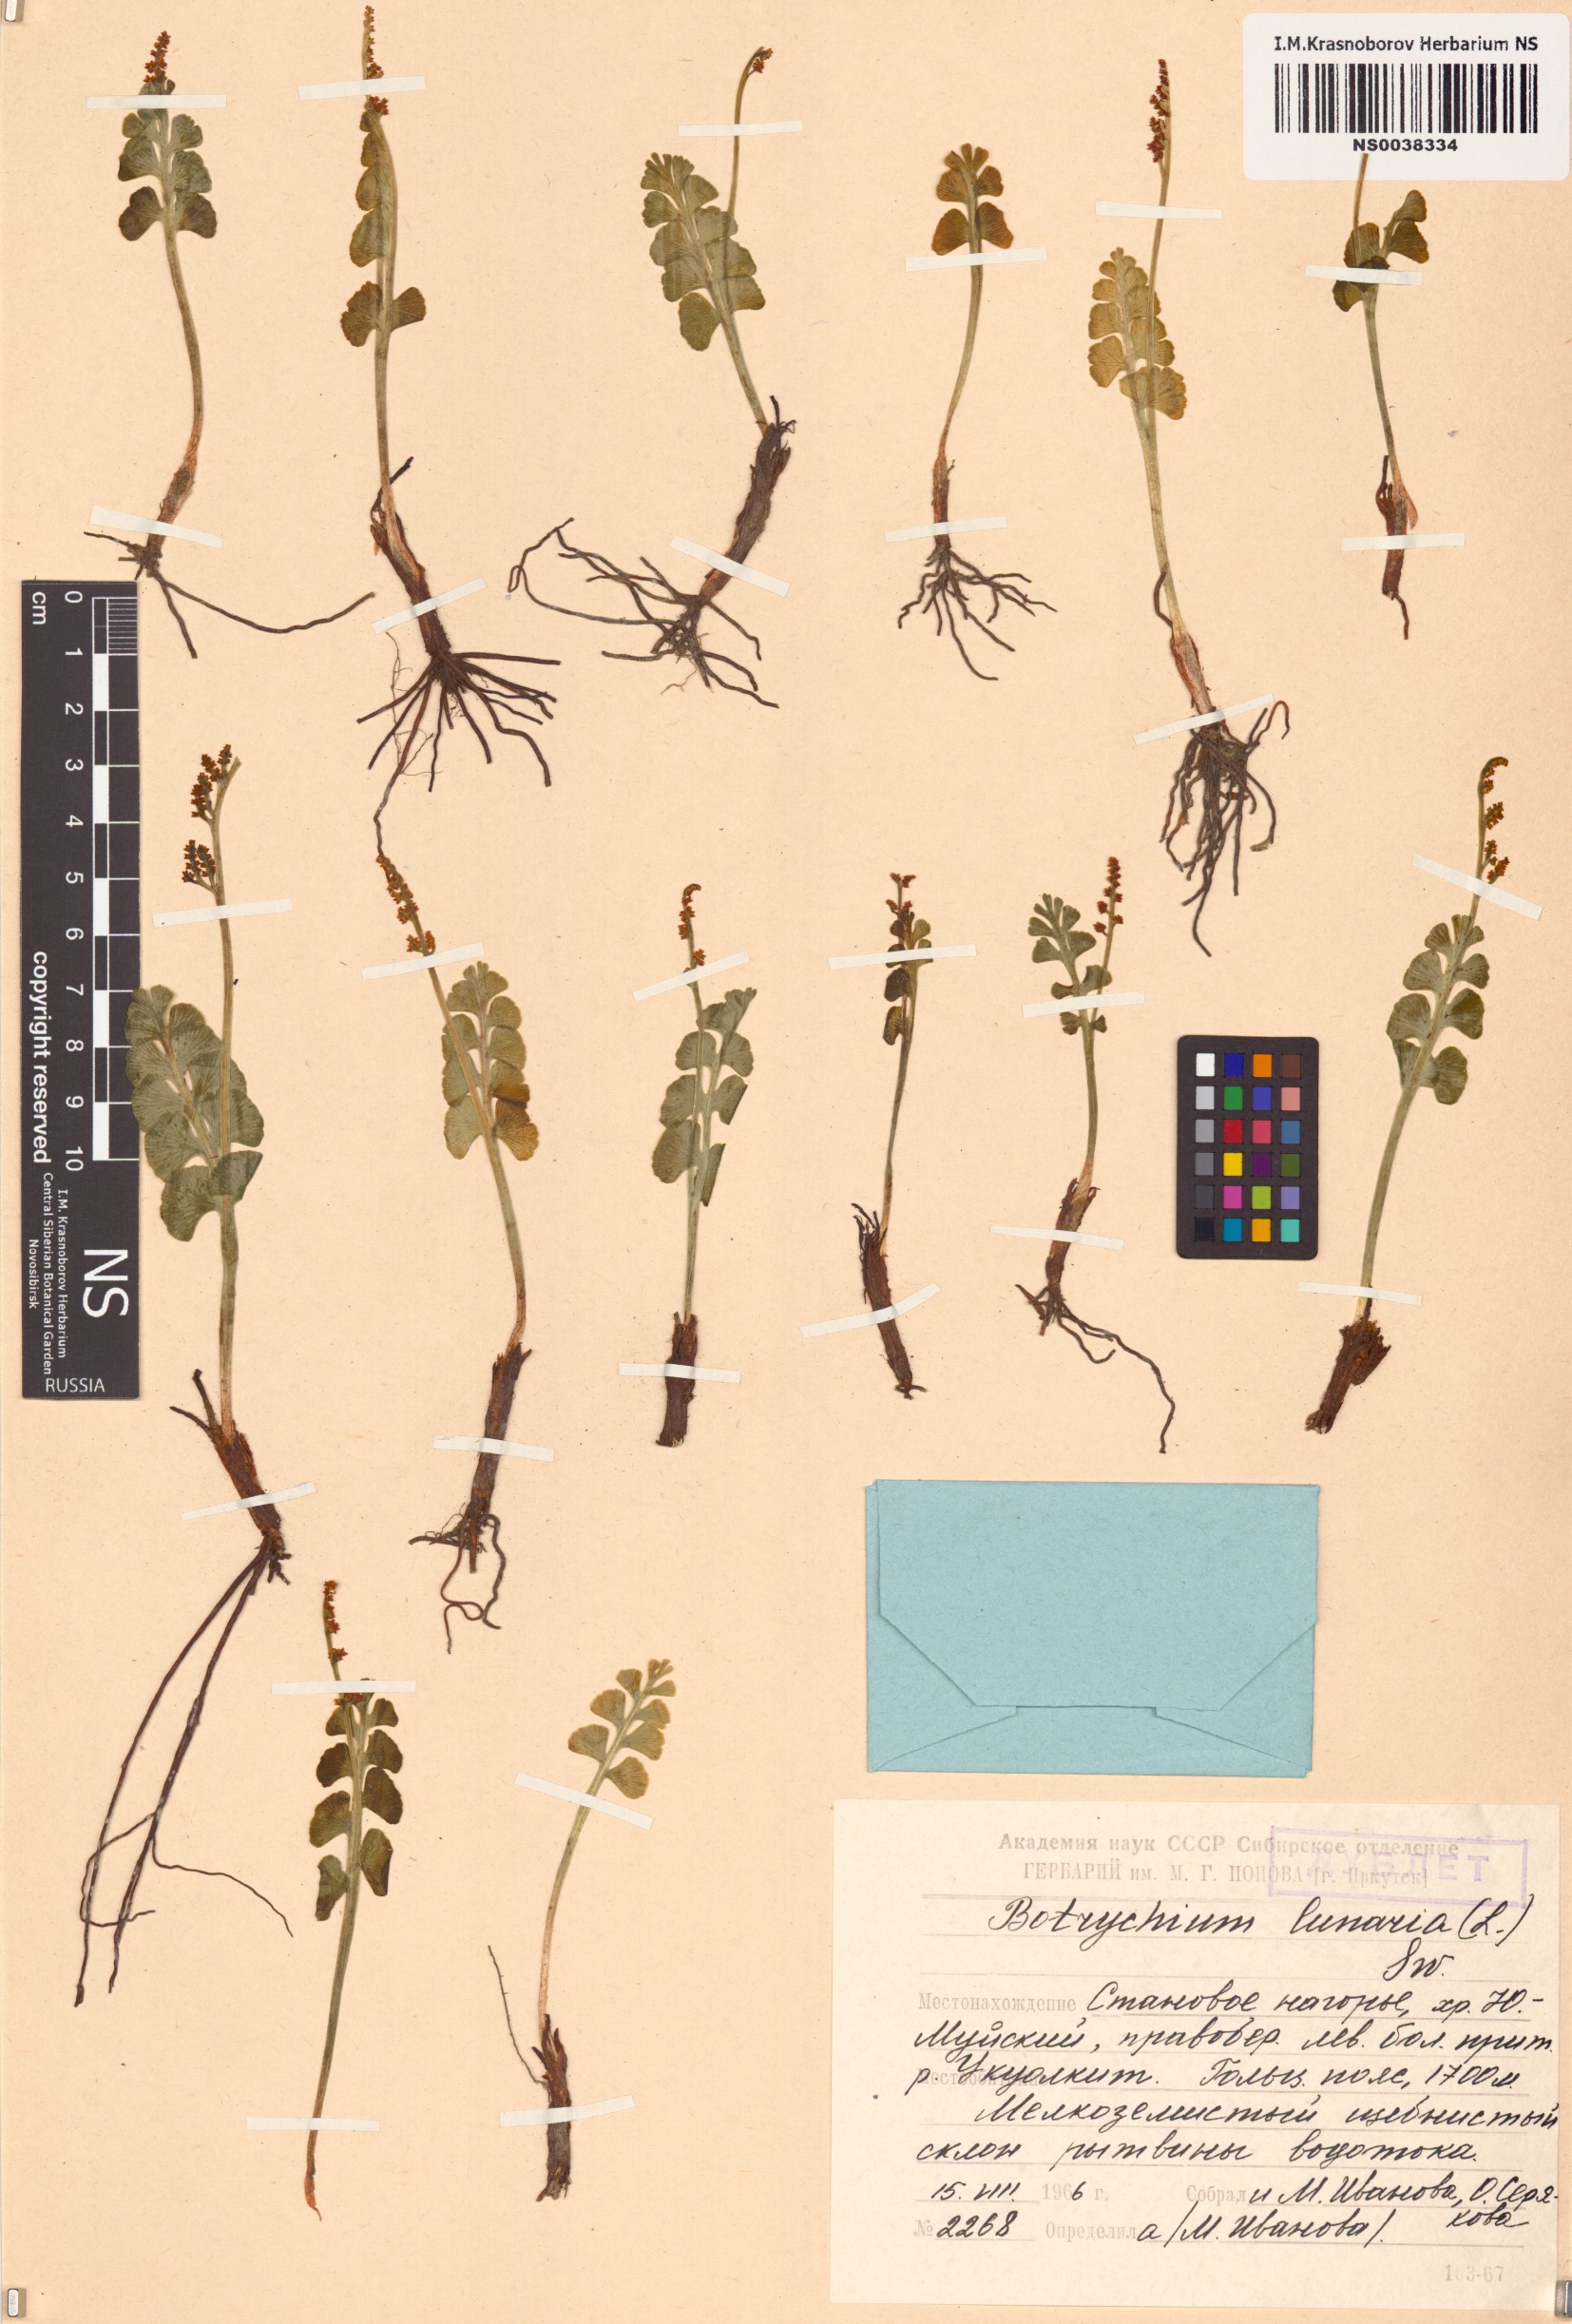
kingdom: Plantae
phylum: Tracheophyta
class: Polypodiopsida
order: Ophioglossales
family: Ophioglossaceae
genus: Botrychium
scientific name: Botrychium lunaria
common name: Moonwort
